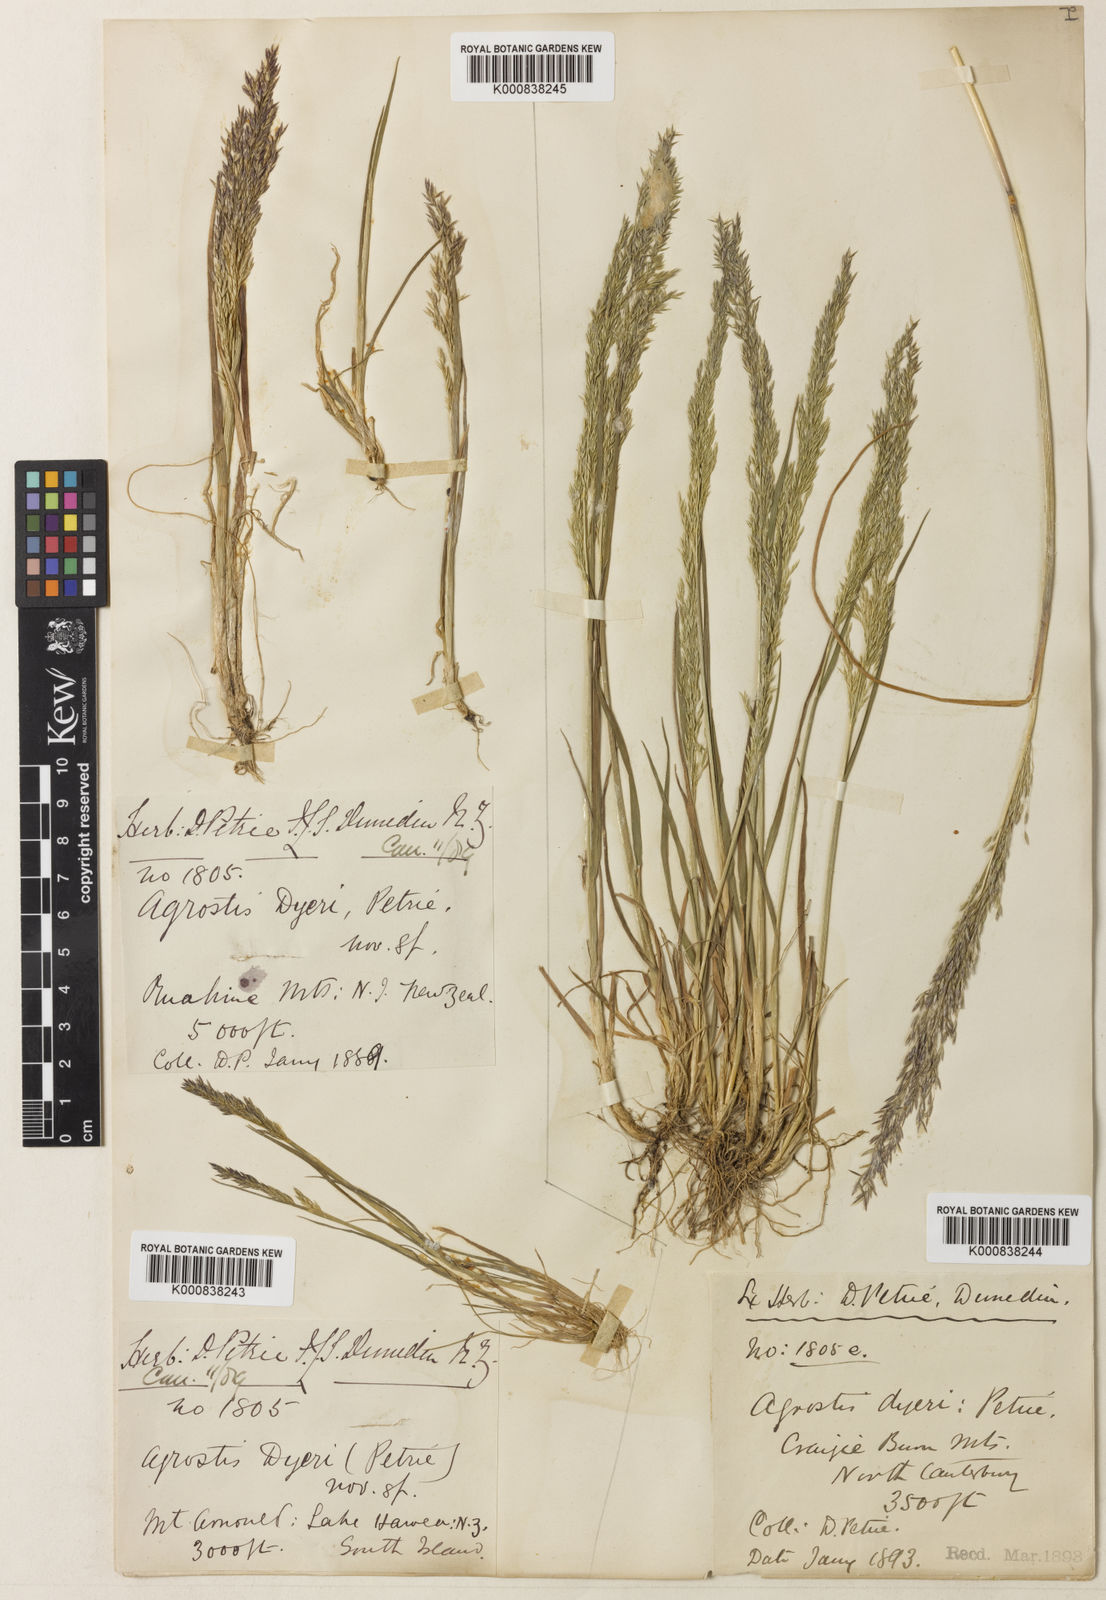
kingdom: Plantae
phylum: Tracheophyta
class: Liliopsida
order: Poales
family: Poaceae
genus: Agrostis
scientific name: Agrostis dyeri
